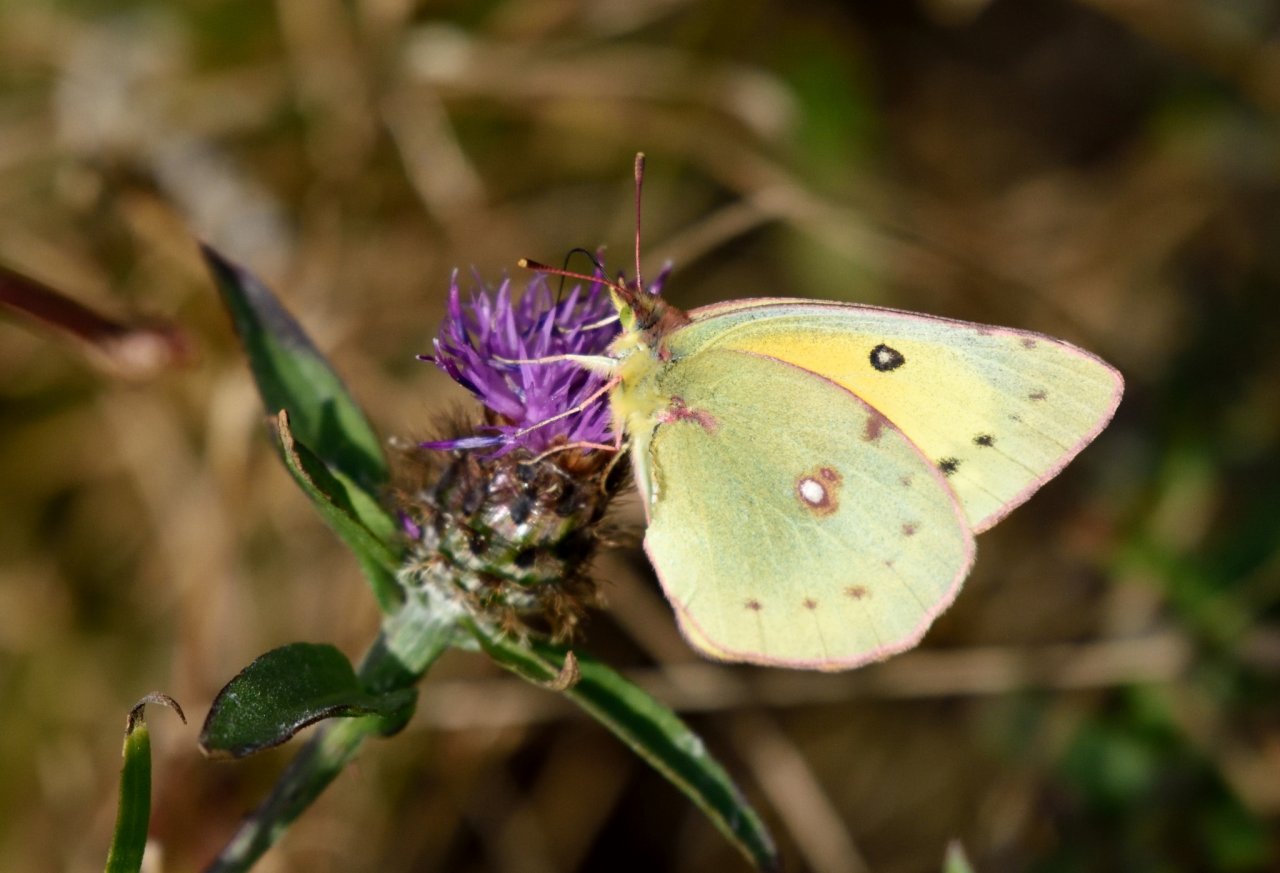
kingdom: Animalia
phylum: Arthropoda
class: Insecta
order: Lepidoptera
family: Pieridae
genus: Colias
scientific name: Colias eurytheme
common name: Orange Sulphur
